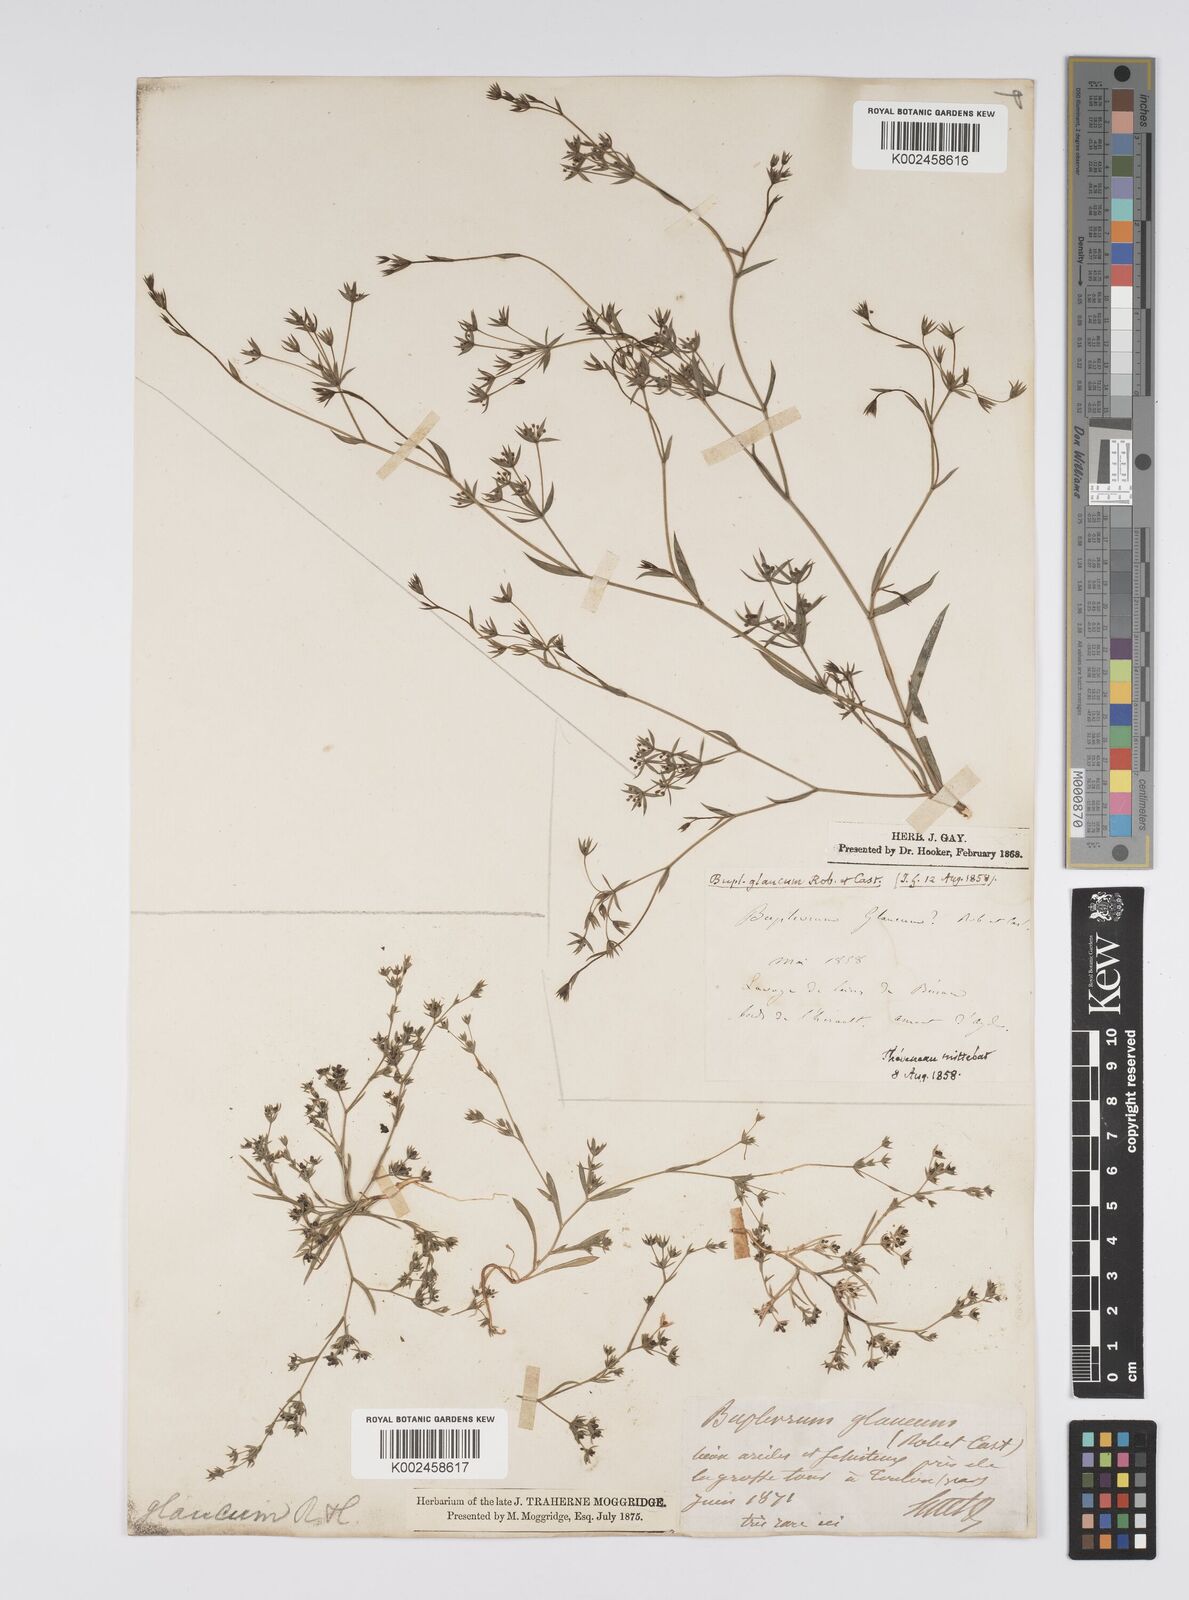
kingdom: Plantae
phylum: Tracheophyta
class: Magnoliopsida
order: Apiales
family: Apiaceae
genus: Bupleurum
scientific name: Bupleurum semicompositum
